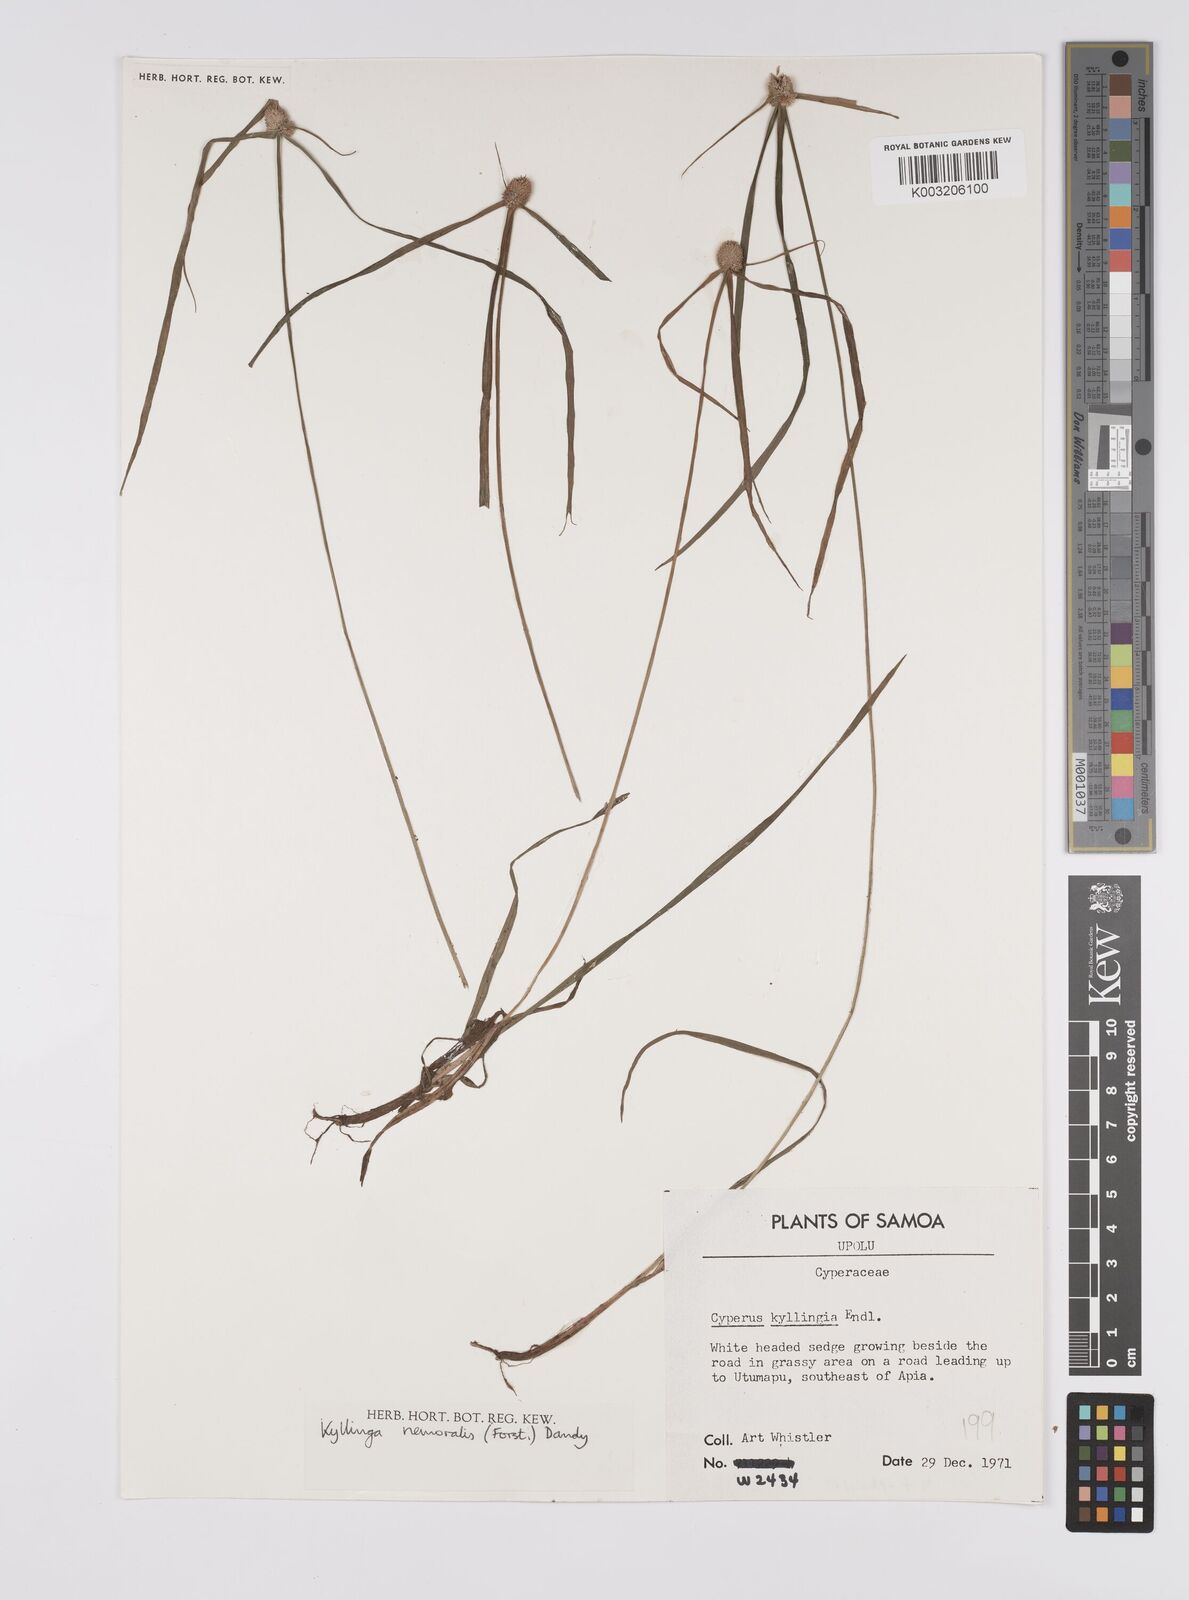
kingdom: Plantae
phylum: Tracheophyta
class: Liliopsida
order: Poales
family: Cyperaceae
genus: Cyperus
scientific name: Cyperus nemoralis
